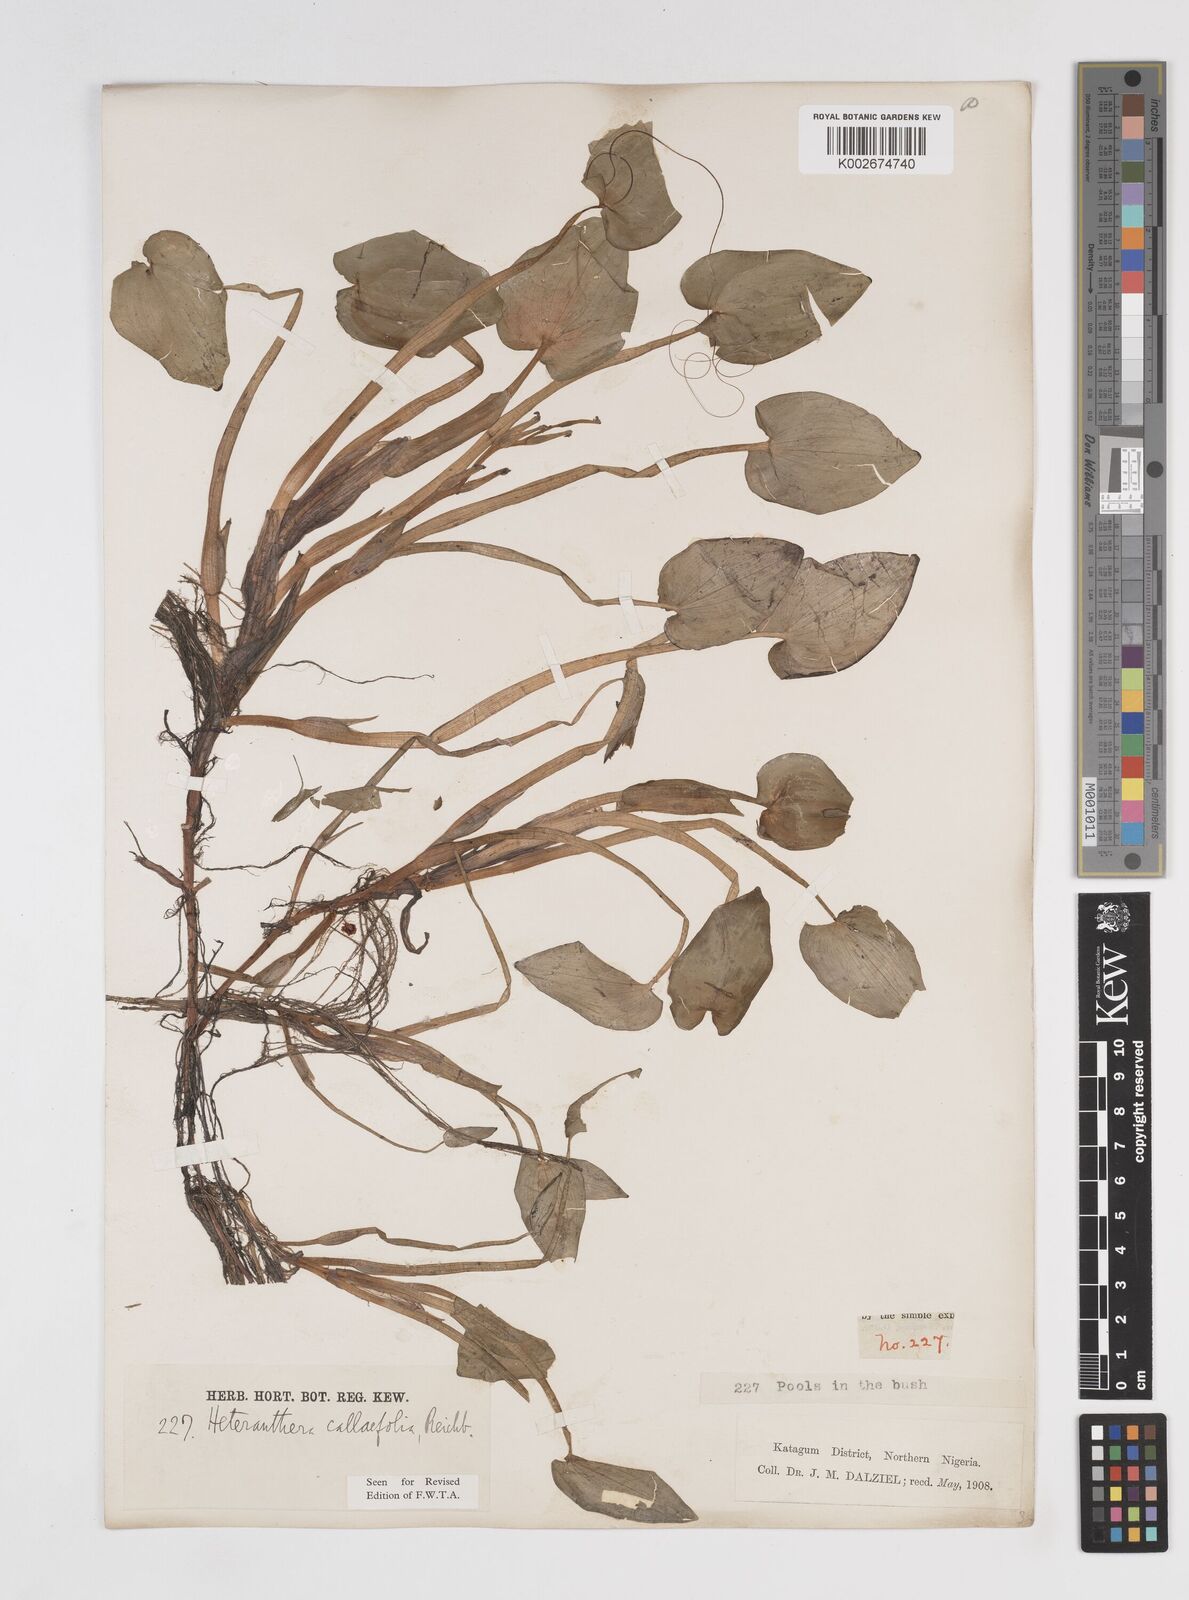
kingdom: Plantae
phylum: Tracheophyta
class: Liliopsida
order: Commelinales
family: Pontederiaceae
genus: Heteranthera
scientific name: Heteranthera callifolia
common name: Mud plantain
